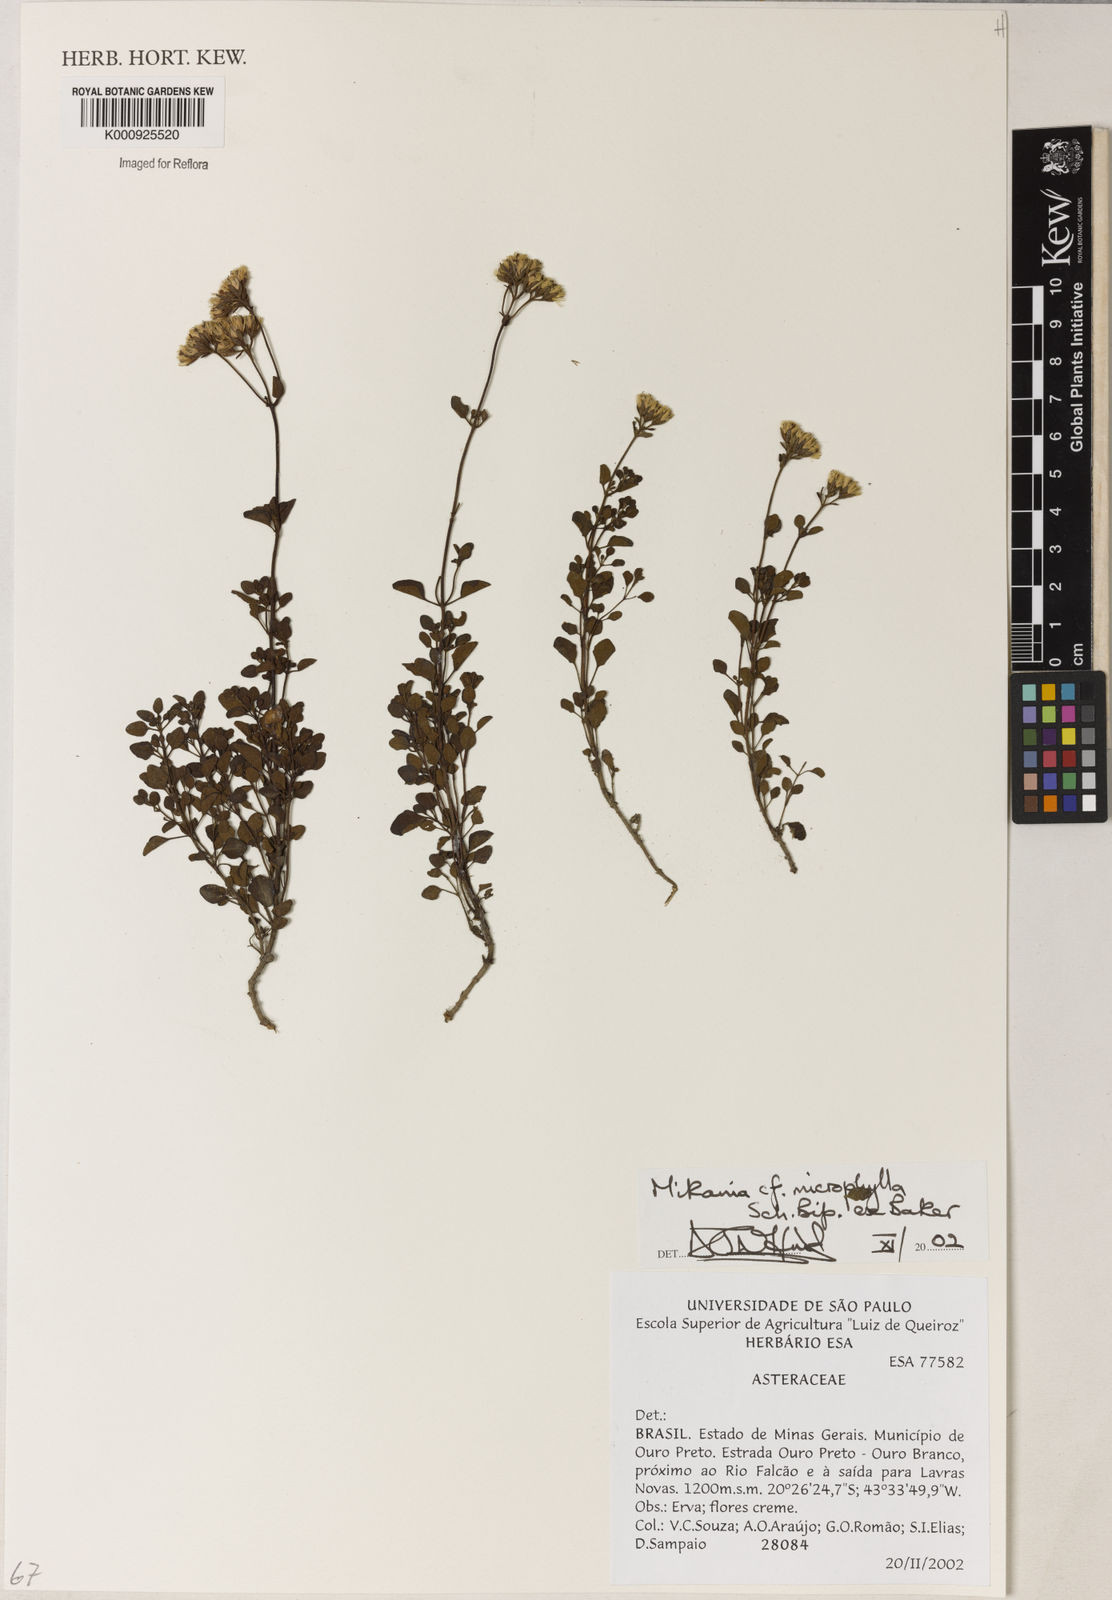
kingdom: Plantae
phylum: Tracheophyta
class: Magnoliopsida
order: Asterales
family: Asteraceae
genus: Mikania
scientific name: Mikania
